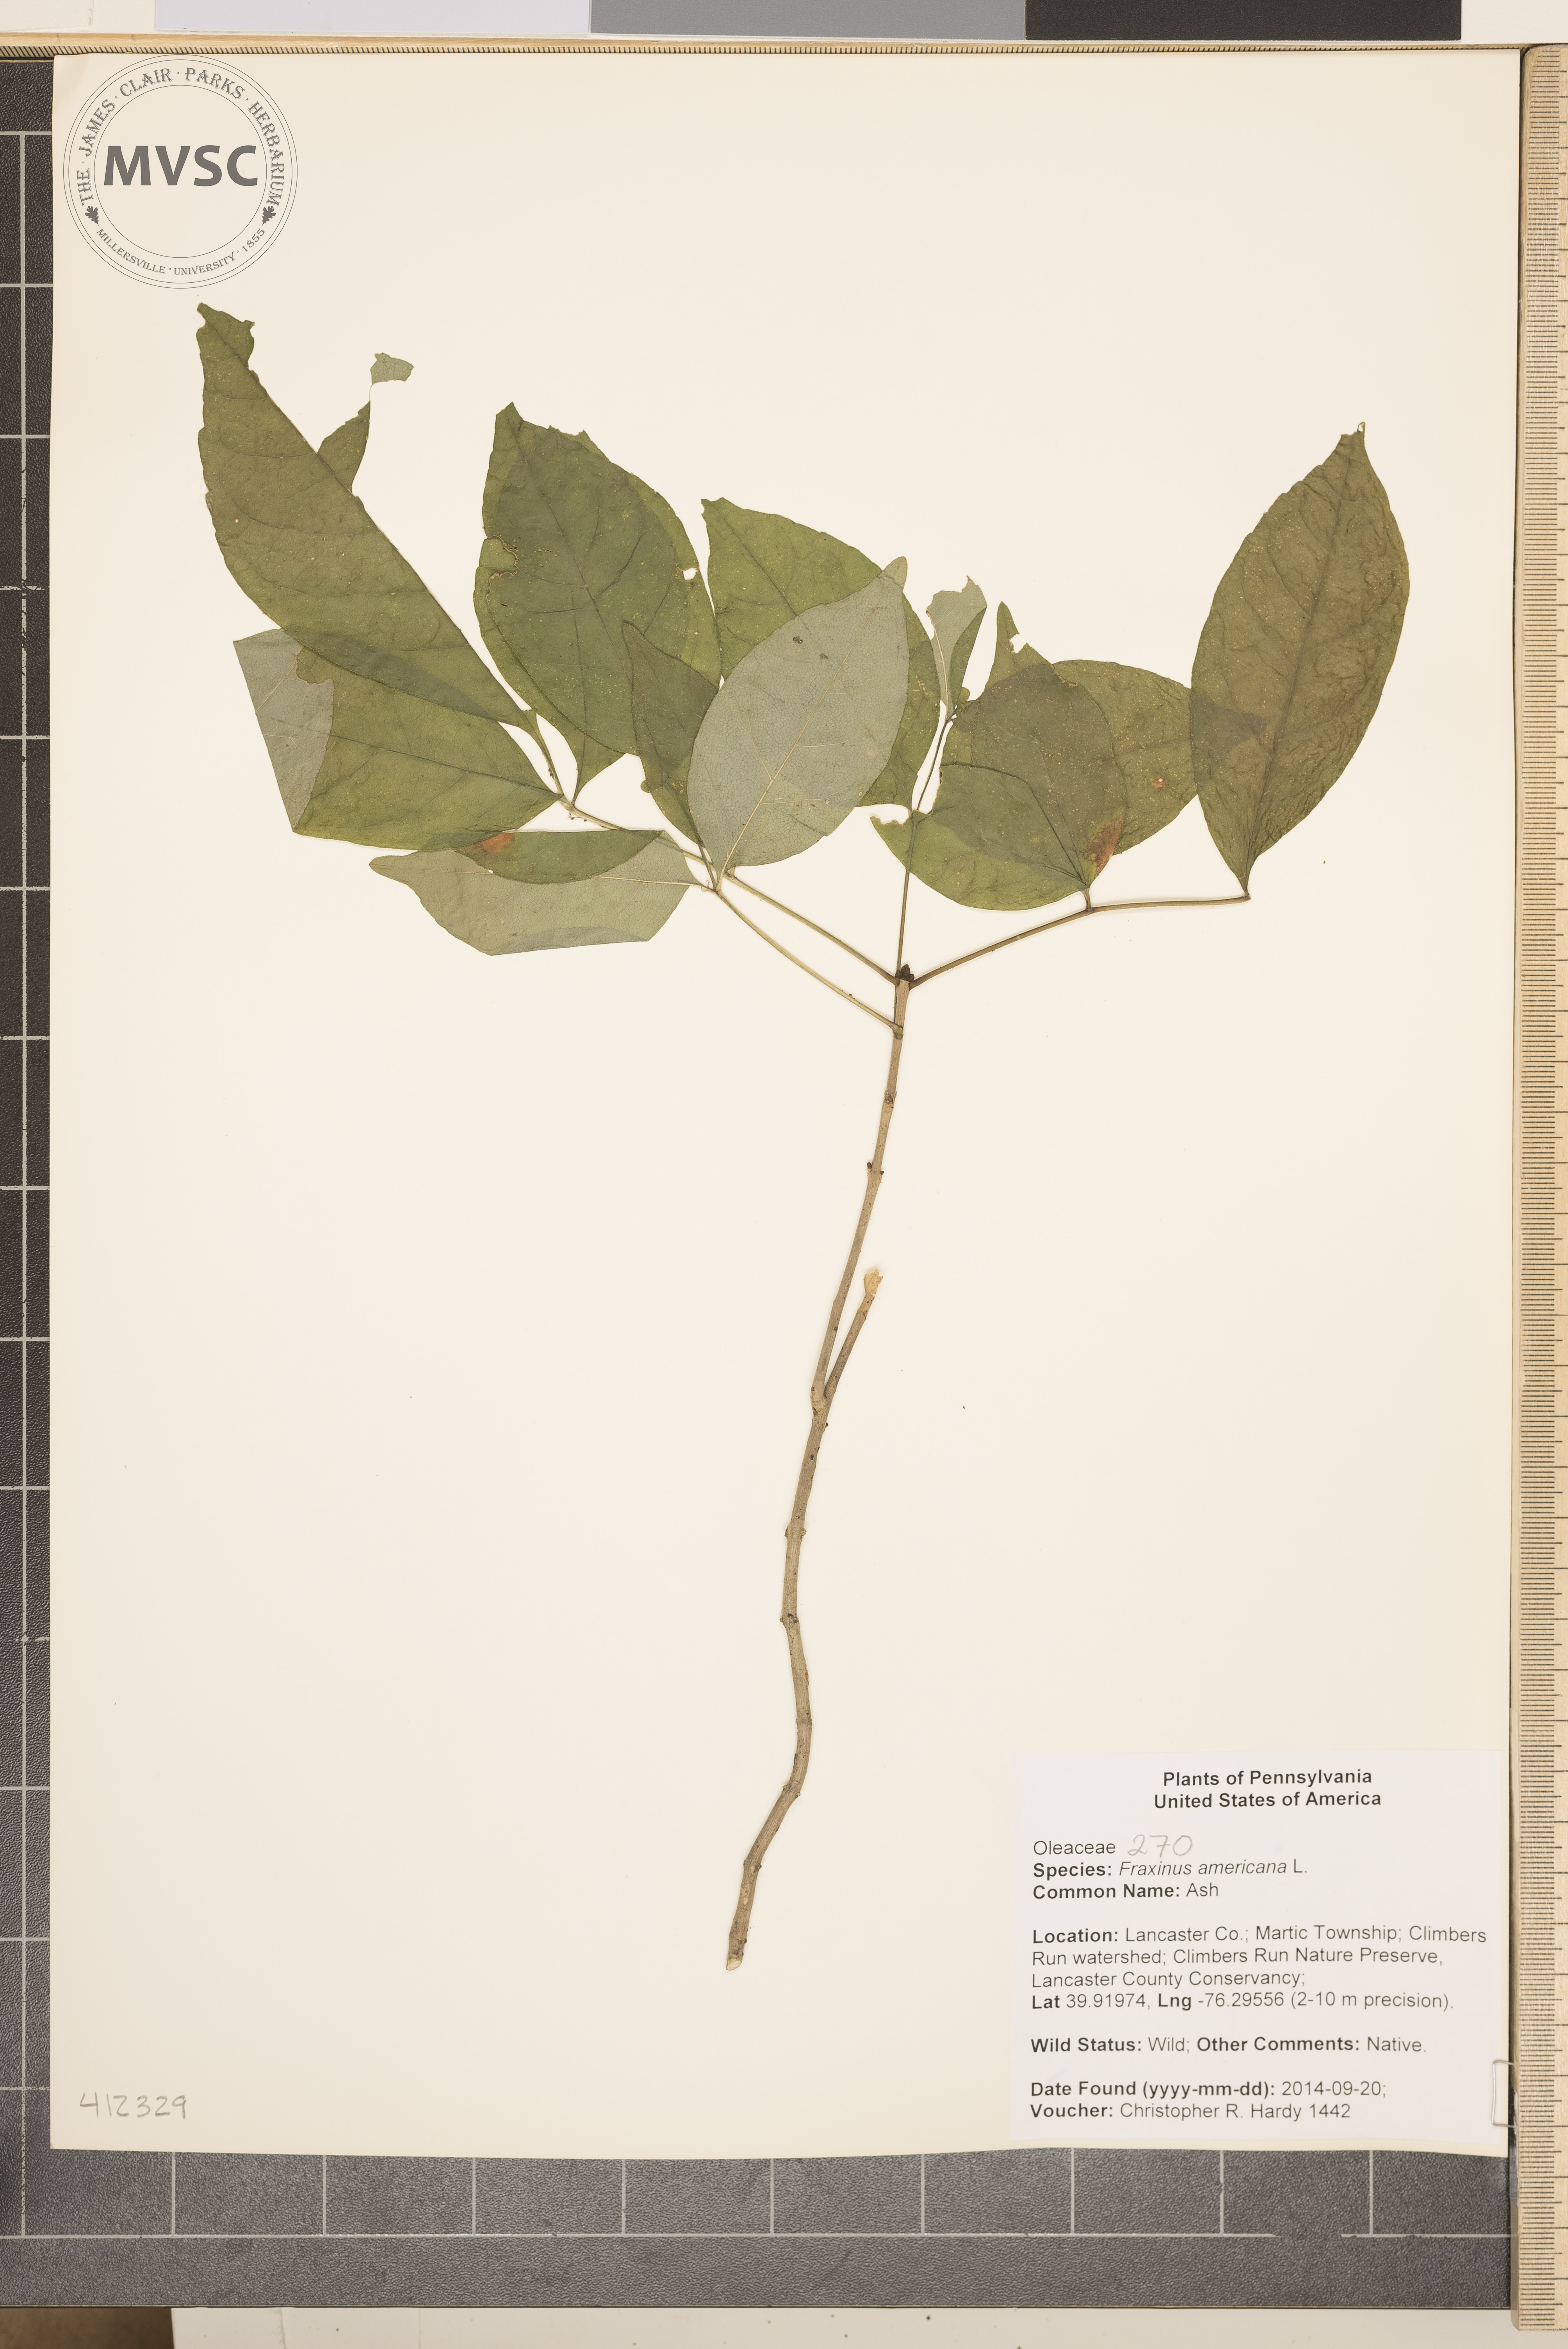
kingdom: Plantae
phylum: Tracheophyta
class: Magnoliopsida
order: Lamiales
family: Oleaceae
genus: Fraxinus
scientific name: Fraxinus americana
